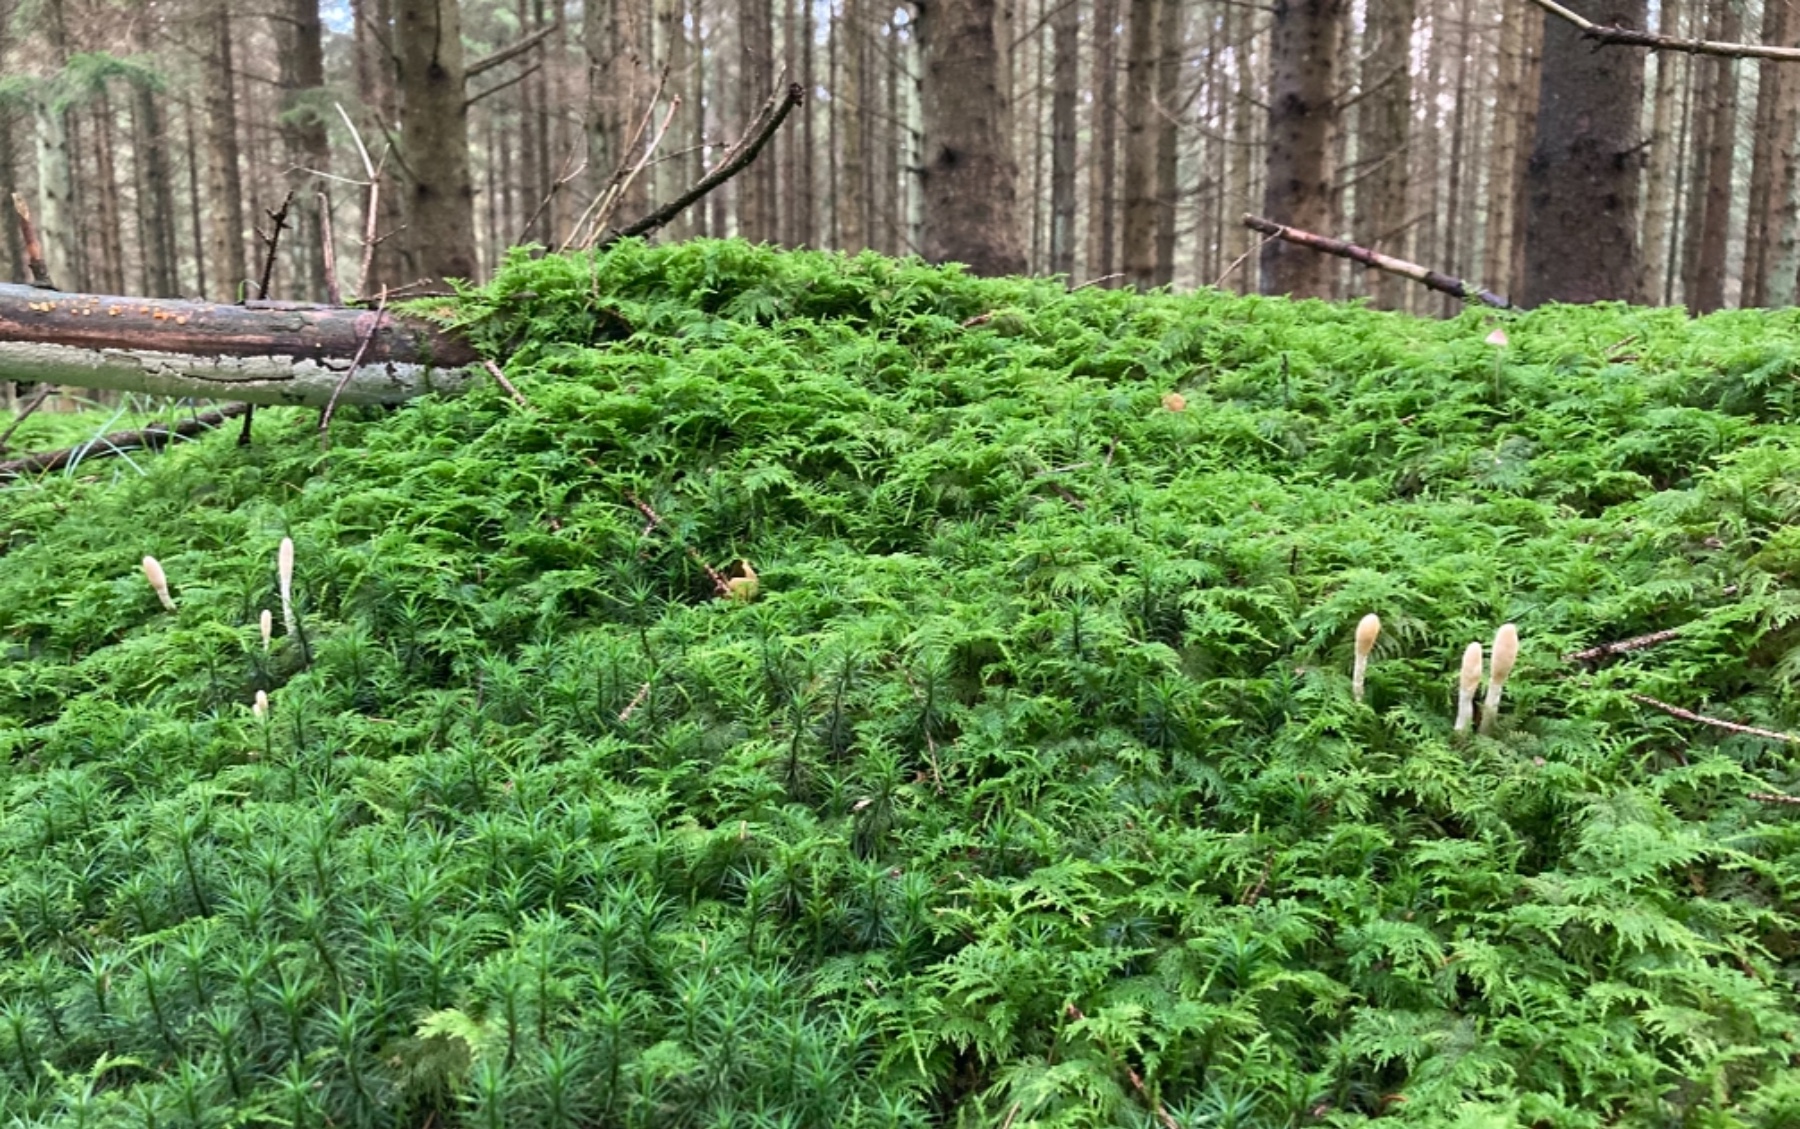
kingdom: Fungi
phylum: Ascomycota
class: Sordariomycetes
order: Hypocreales
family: Hypocreaceae
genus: Trichoderma
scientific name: Trichoderma leucopus
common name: lysstokket kødkerne
